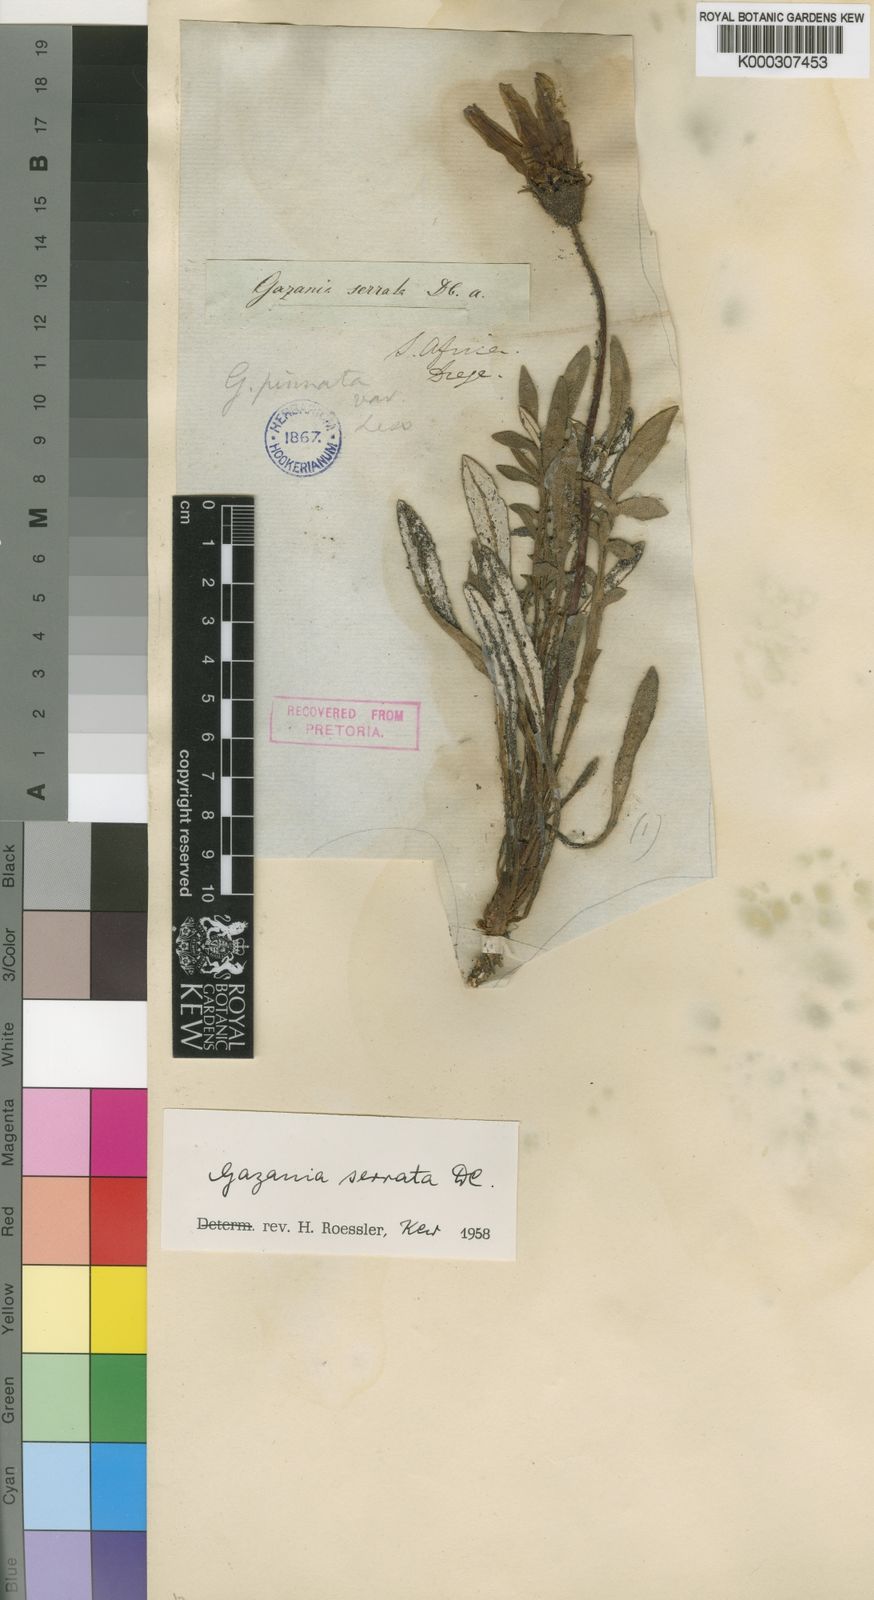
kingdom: Plantae
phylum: Tracheophyta
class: Magnoliopsida
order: Asterales
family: Asteraceae
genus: Gazania
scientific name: Gazania serrata
